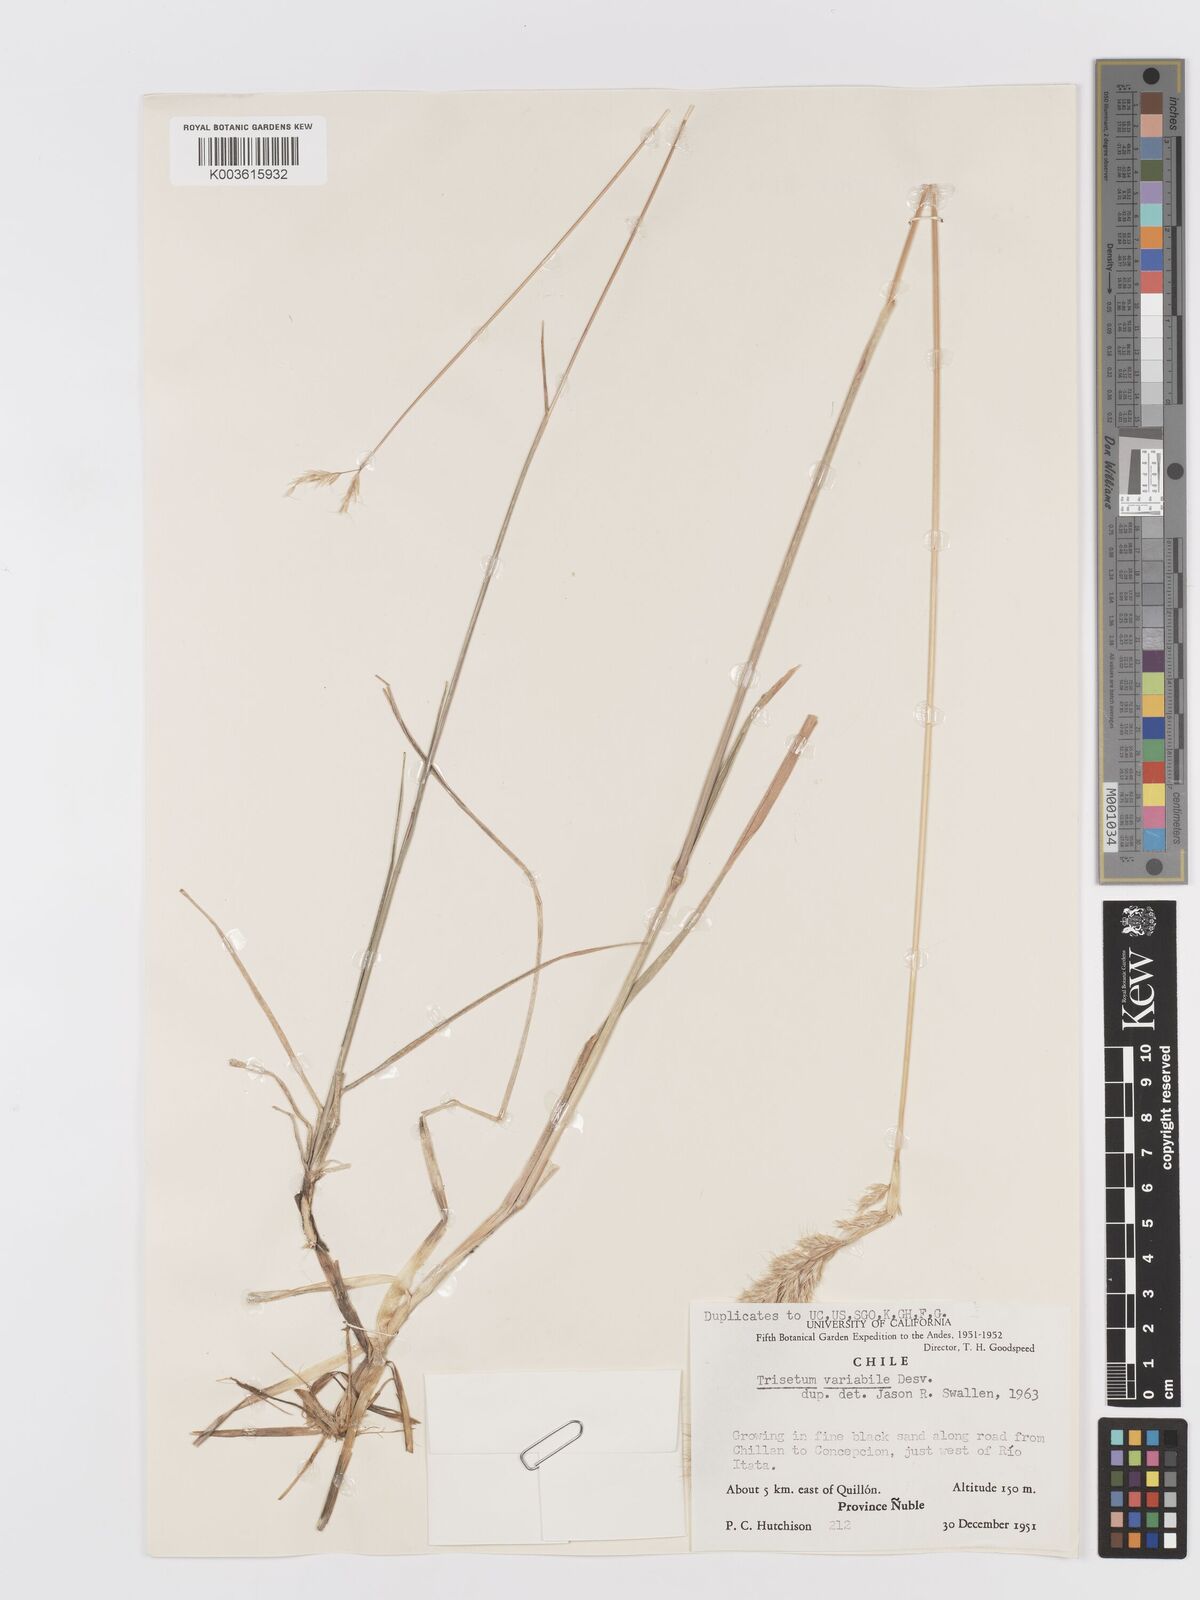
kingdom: Plantae
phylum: Tracheophyta
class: Liliopsida
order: Poales
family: Poaceae
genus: Koeleria
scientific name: Koeleria spicata
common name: Mountain trisetum
